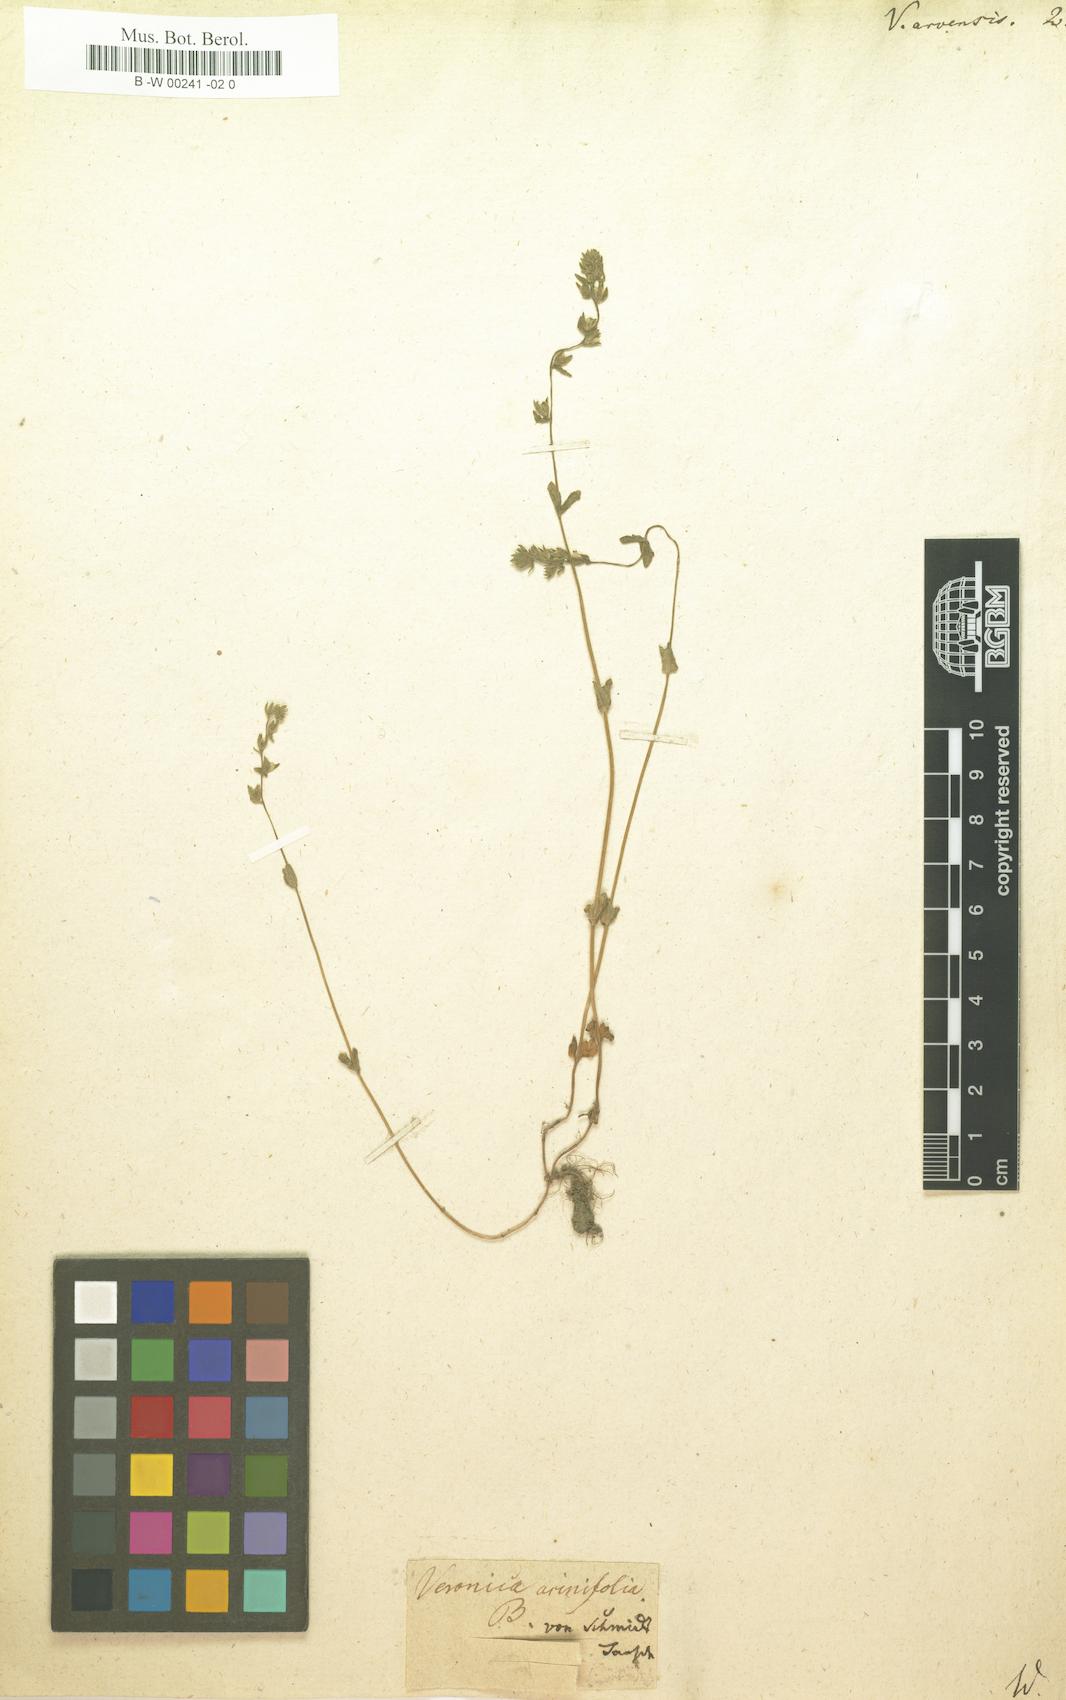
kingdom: Plantae
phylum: Tracheophyta
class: Magnoliopsida
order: Lamiales
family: Plantaginaceae
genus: Veronica
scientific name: Veronica arvensis
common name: Corn speedwell
